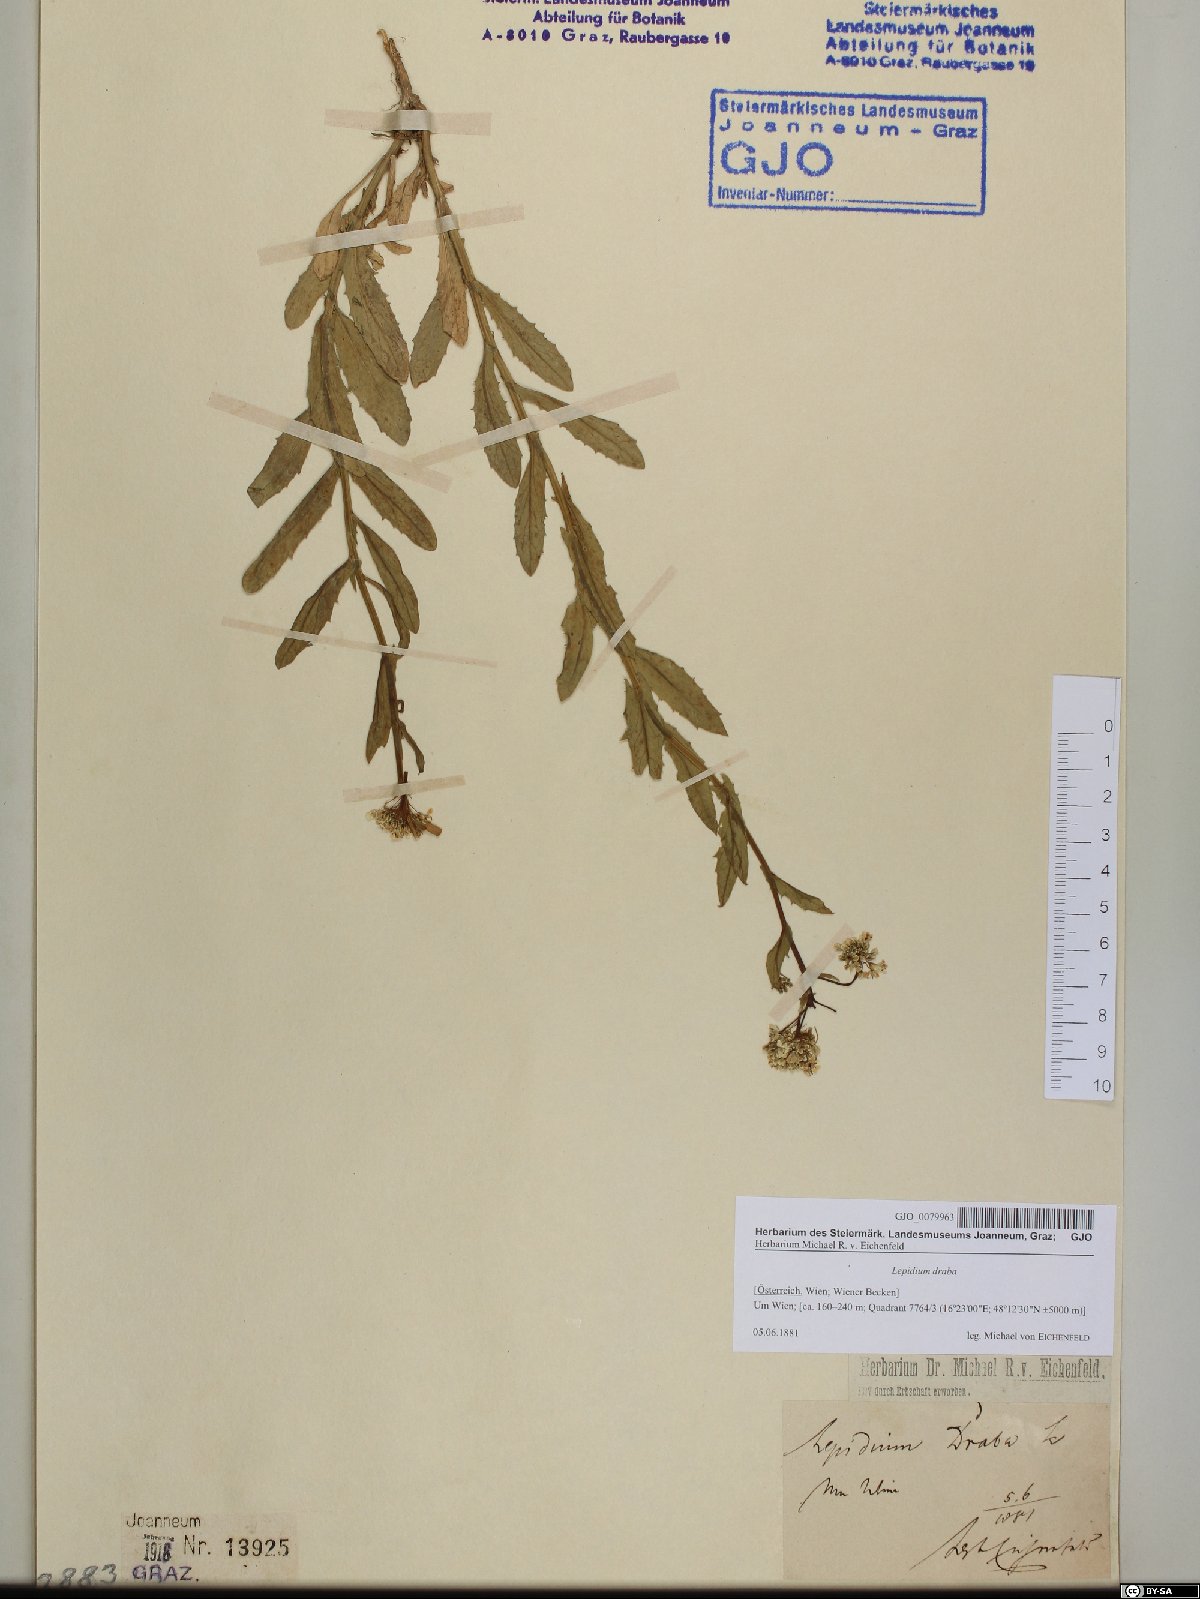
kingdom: Plantae
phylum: Tracheophyta
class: Magnoliopsida
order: Brassicales
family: Brassicaceae
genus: Lepidium
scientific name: Lepidium draba
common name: Hoary cress
